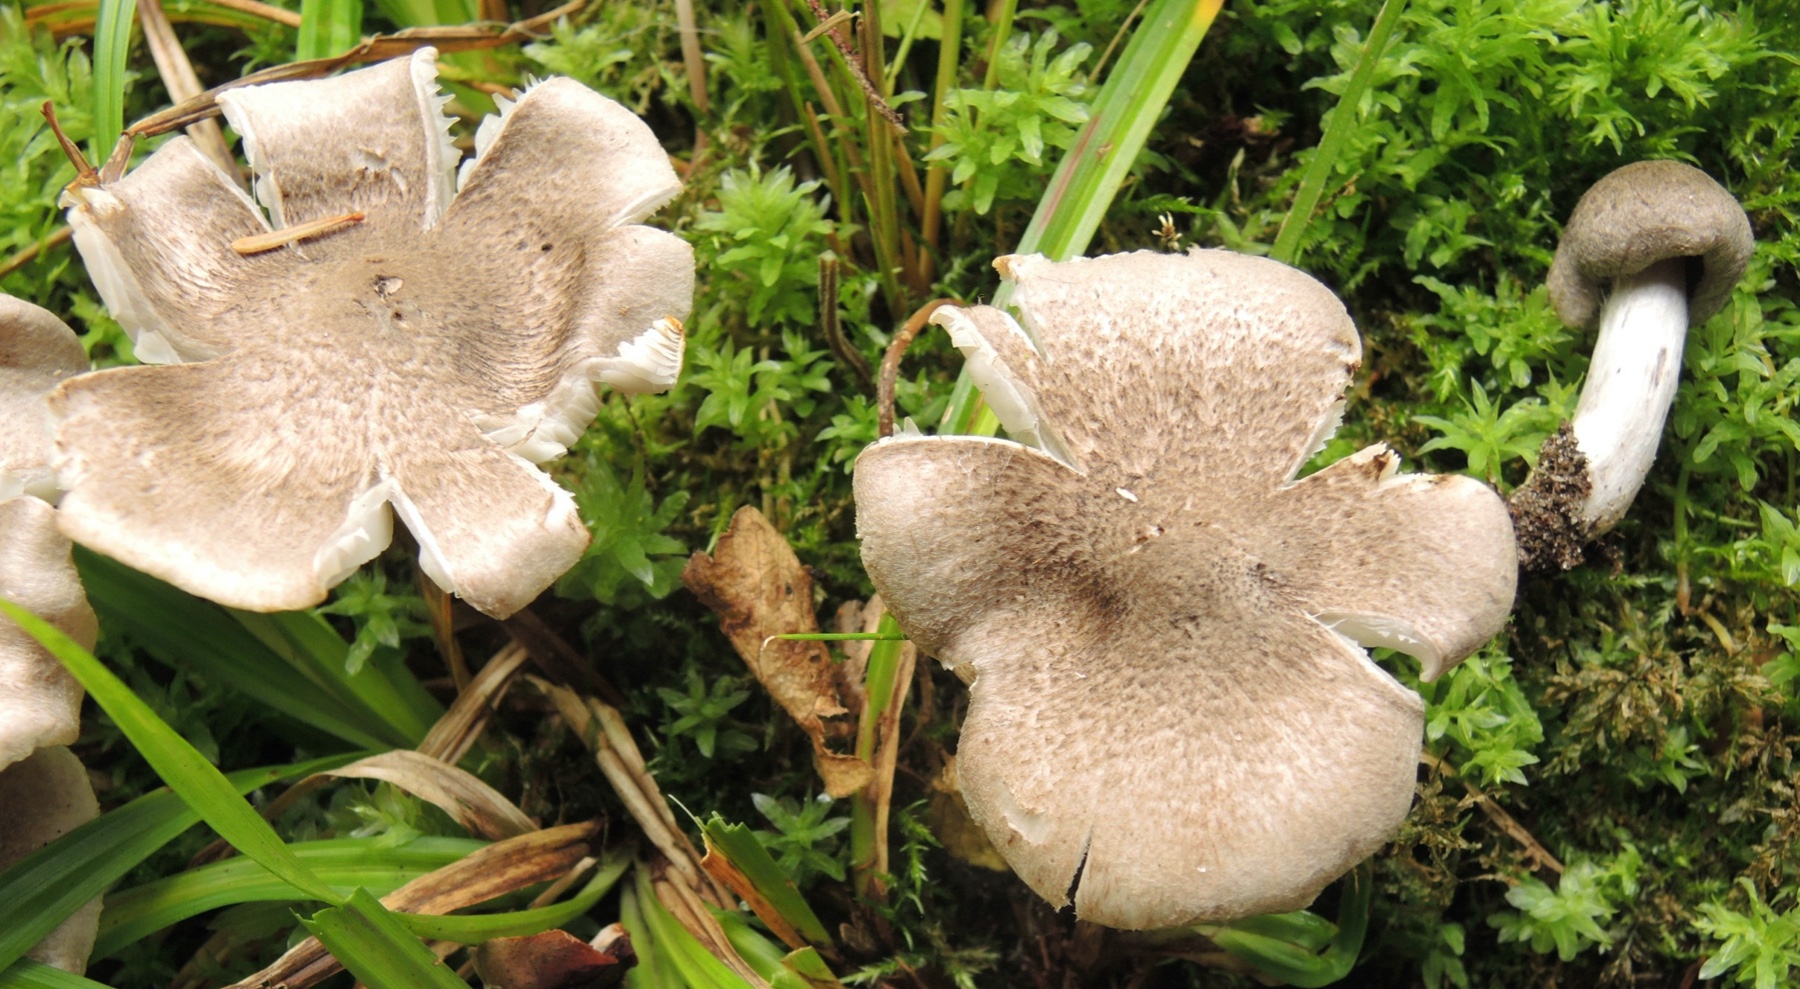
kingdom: Fungi
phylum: Basidiomycota
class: Agaricomycetes
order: Agaricales
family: Tricholomataceae
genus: Tricholoma
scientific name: Tricholoma terreum
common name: jordfarvet ridderhat
